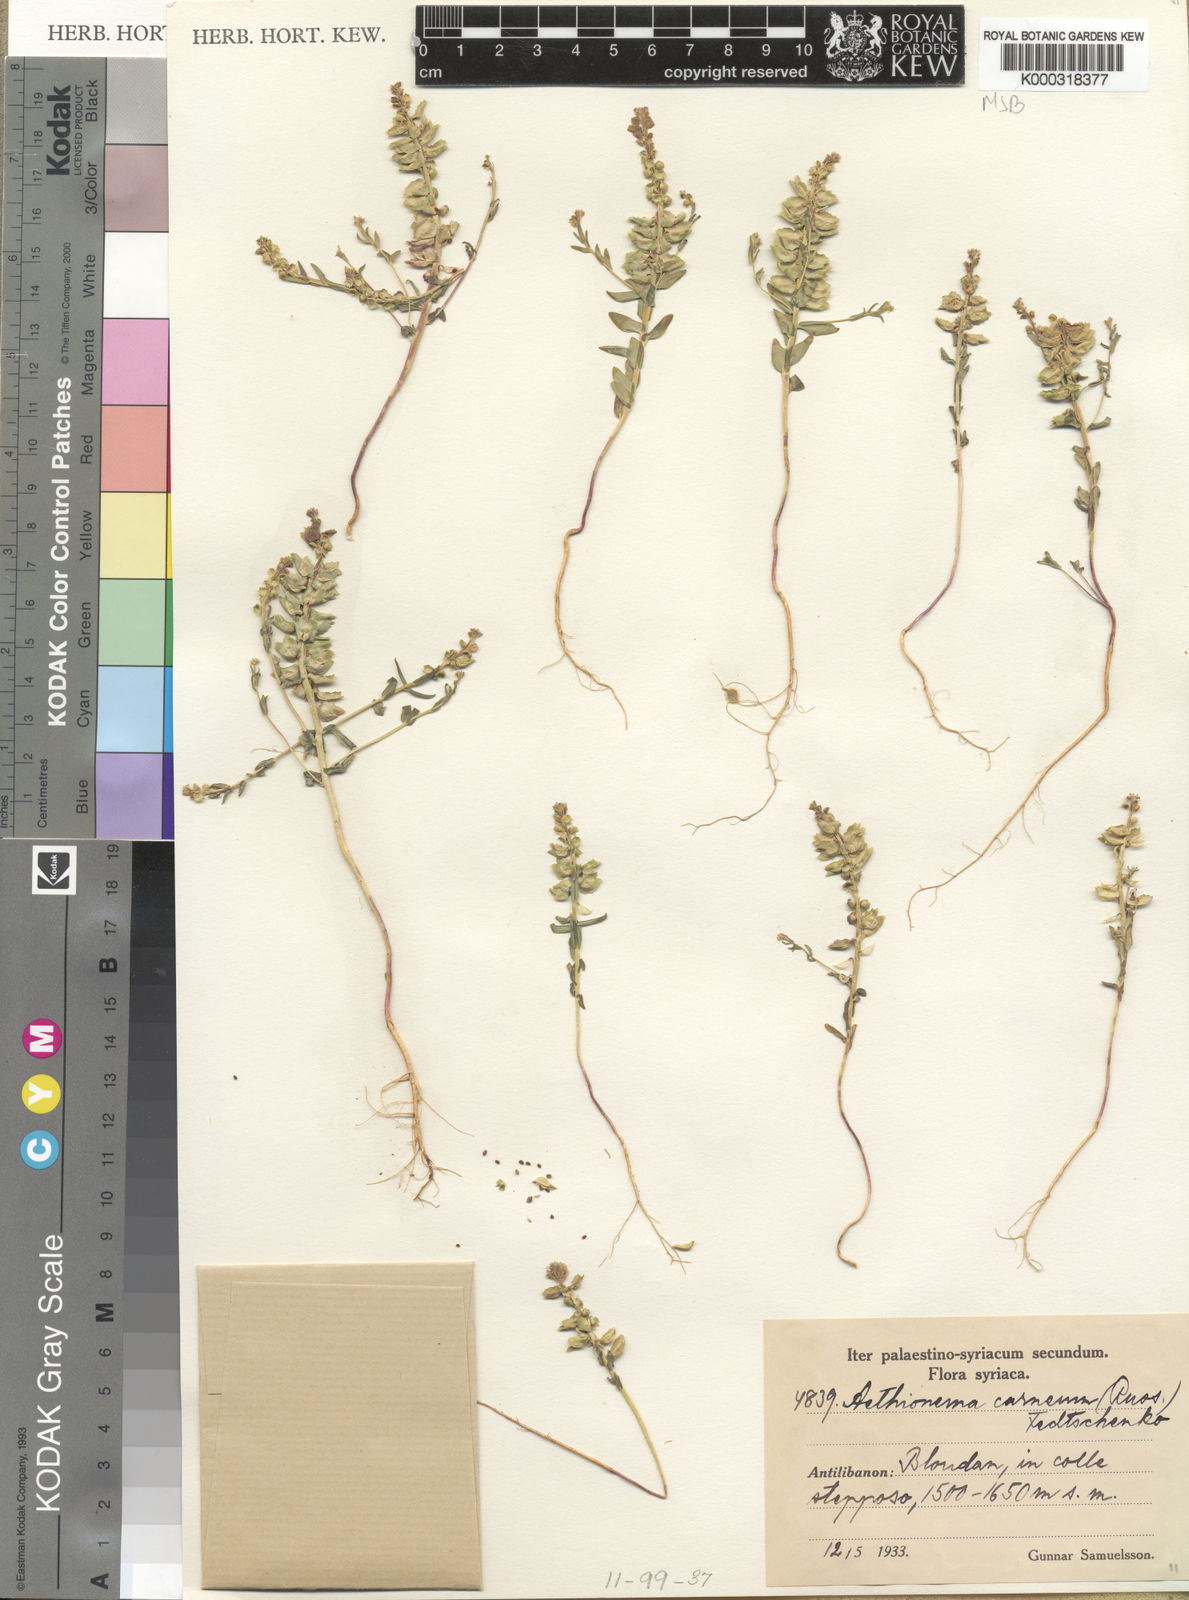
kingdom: Plantae
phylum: Tracheophyta
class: Magnoliopsida
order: Brassicales
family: Brassicaceae
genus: Aethionema
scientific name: Aethionema carneum
